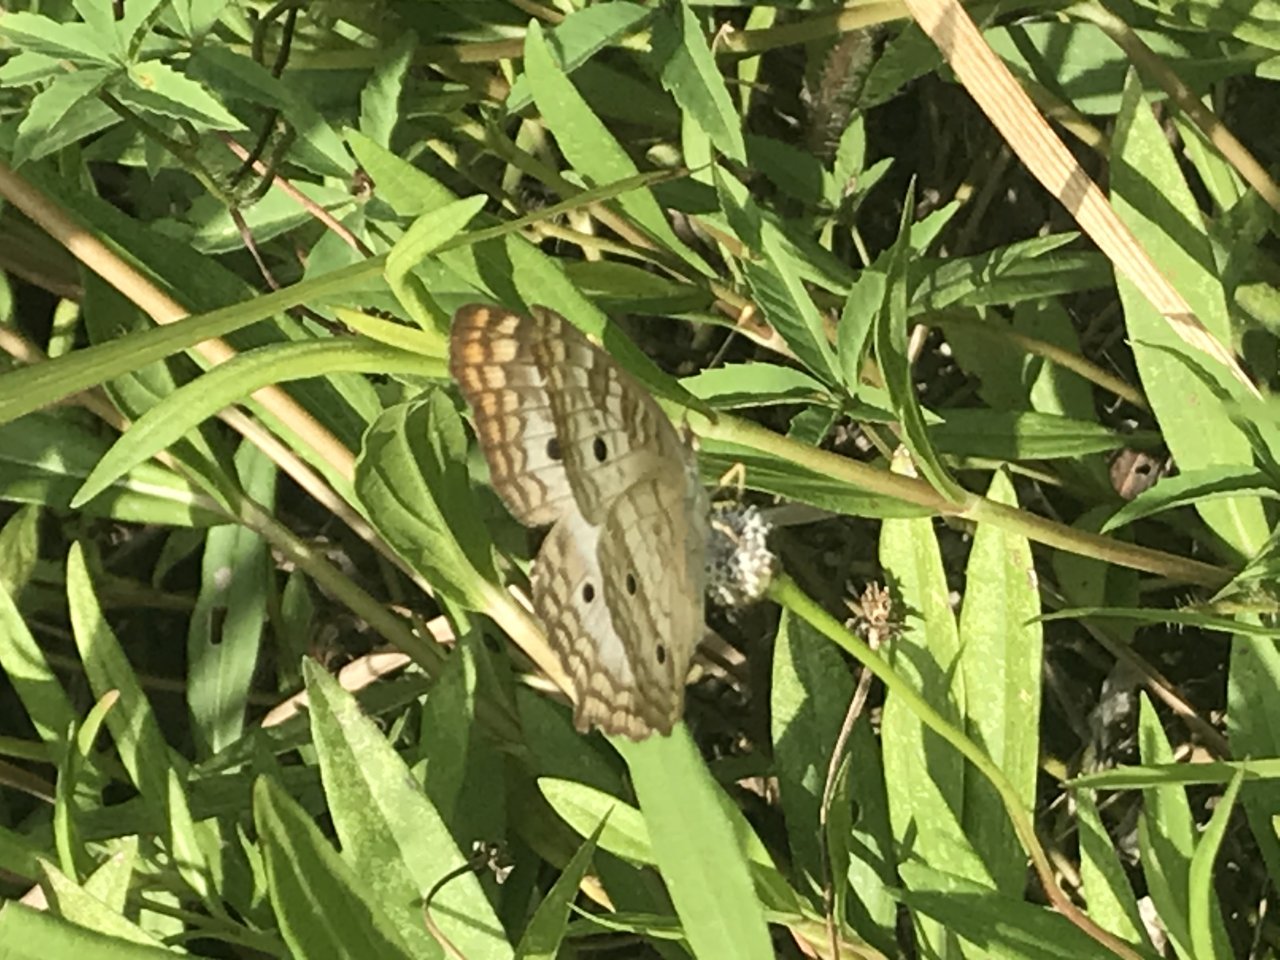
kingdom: Animalia
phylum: Arthropoda
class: Insecta
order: Lepidoptera
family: Nymphalidae
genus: Anartia
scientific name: Anartia jatrophae
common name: White Peacock
